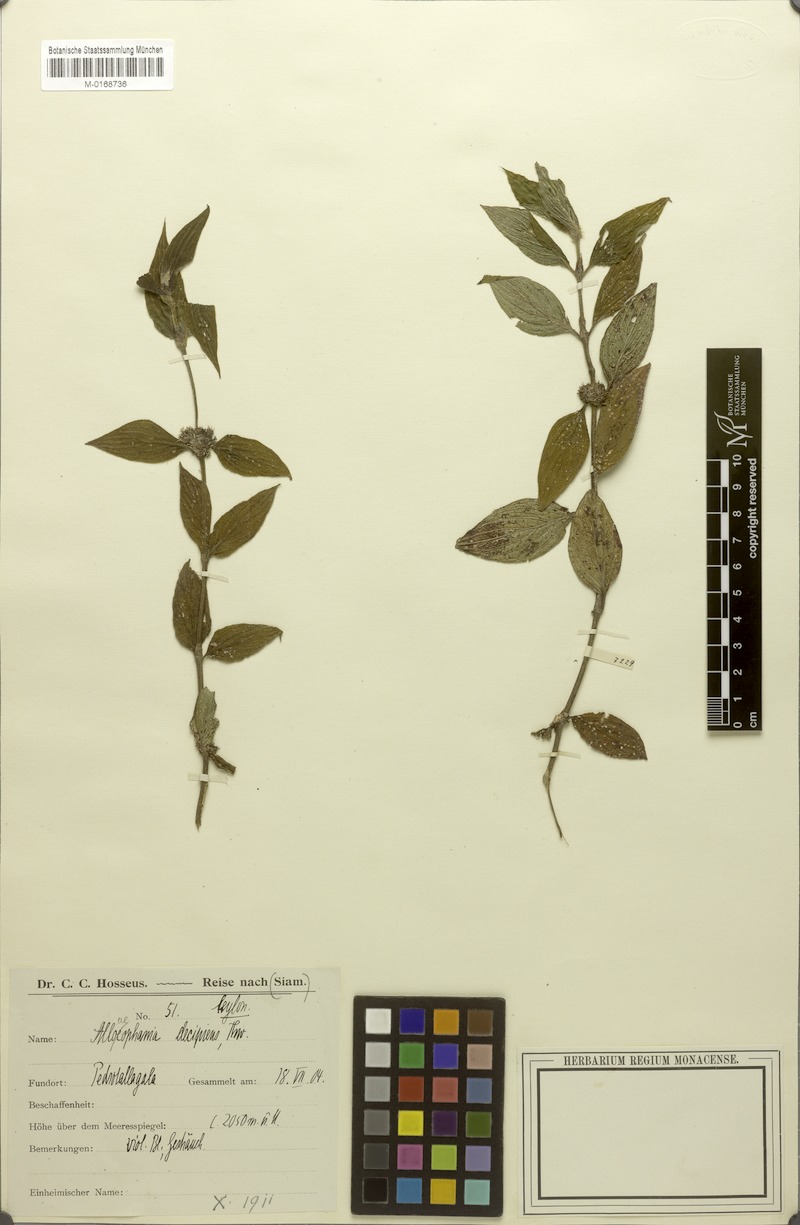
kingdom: Plantae
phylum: Tracheophyta
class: Magnoliopsida
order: Gentianales
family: Rubiaceae
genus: Hedyotis
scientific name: Hedyotis ceylanica
